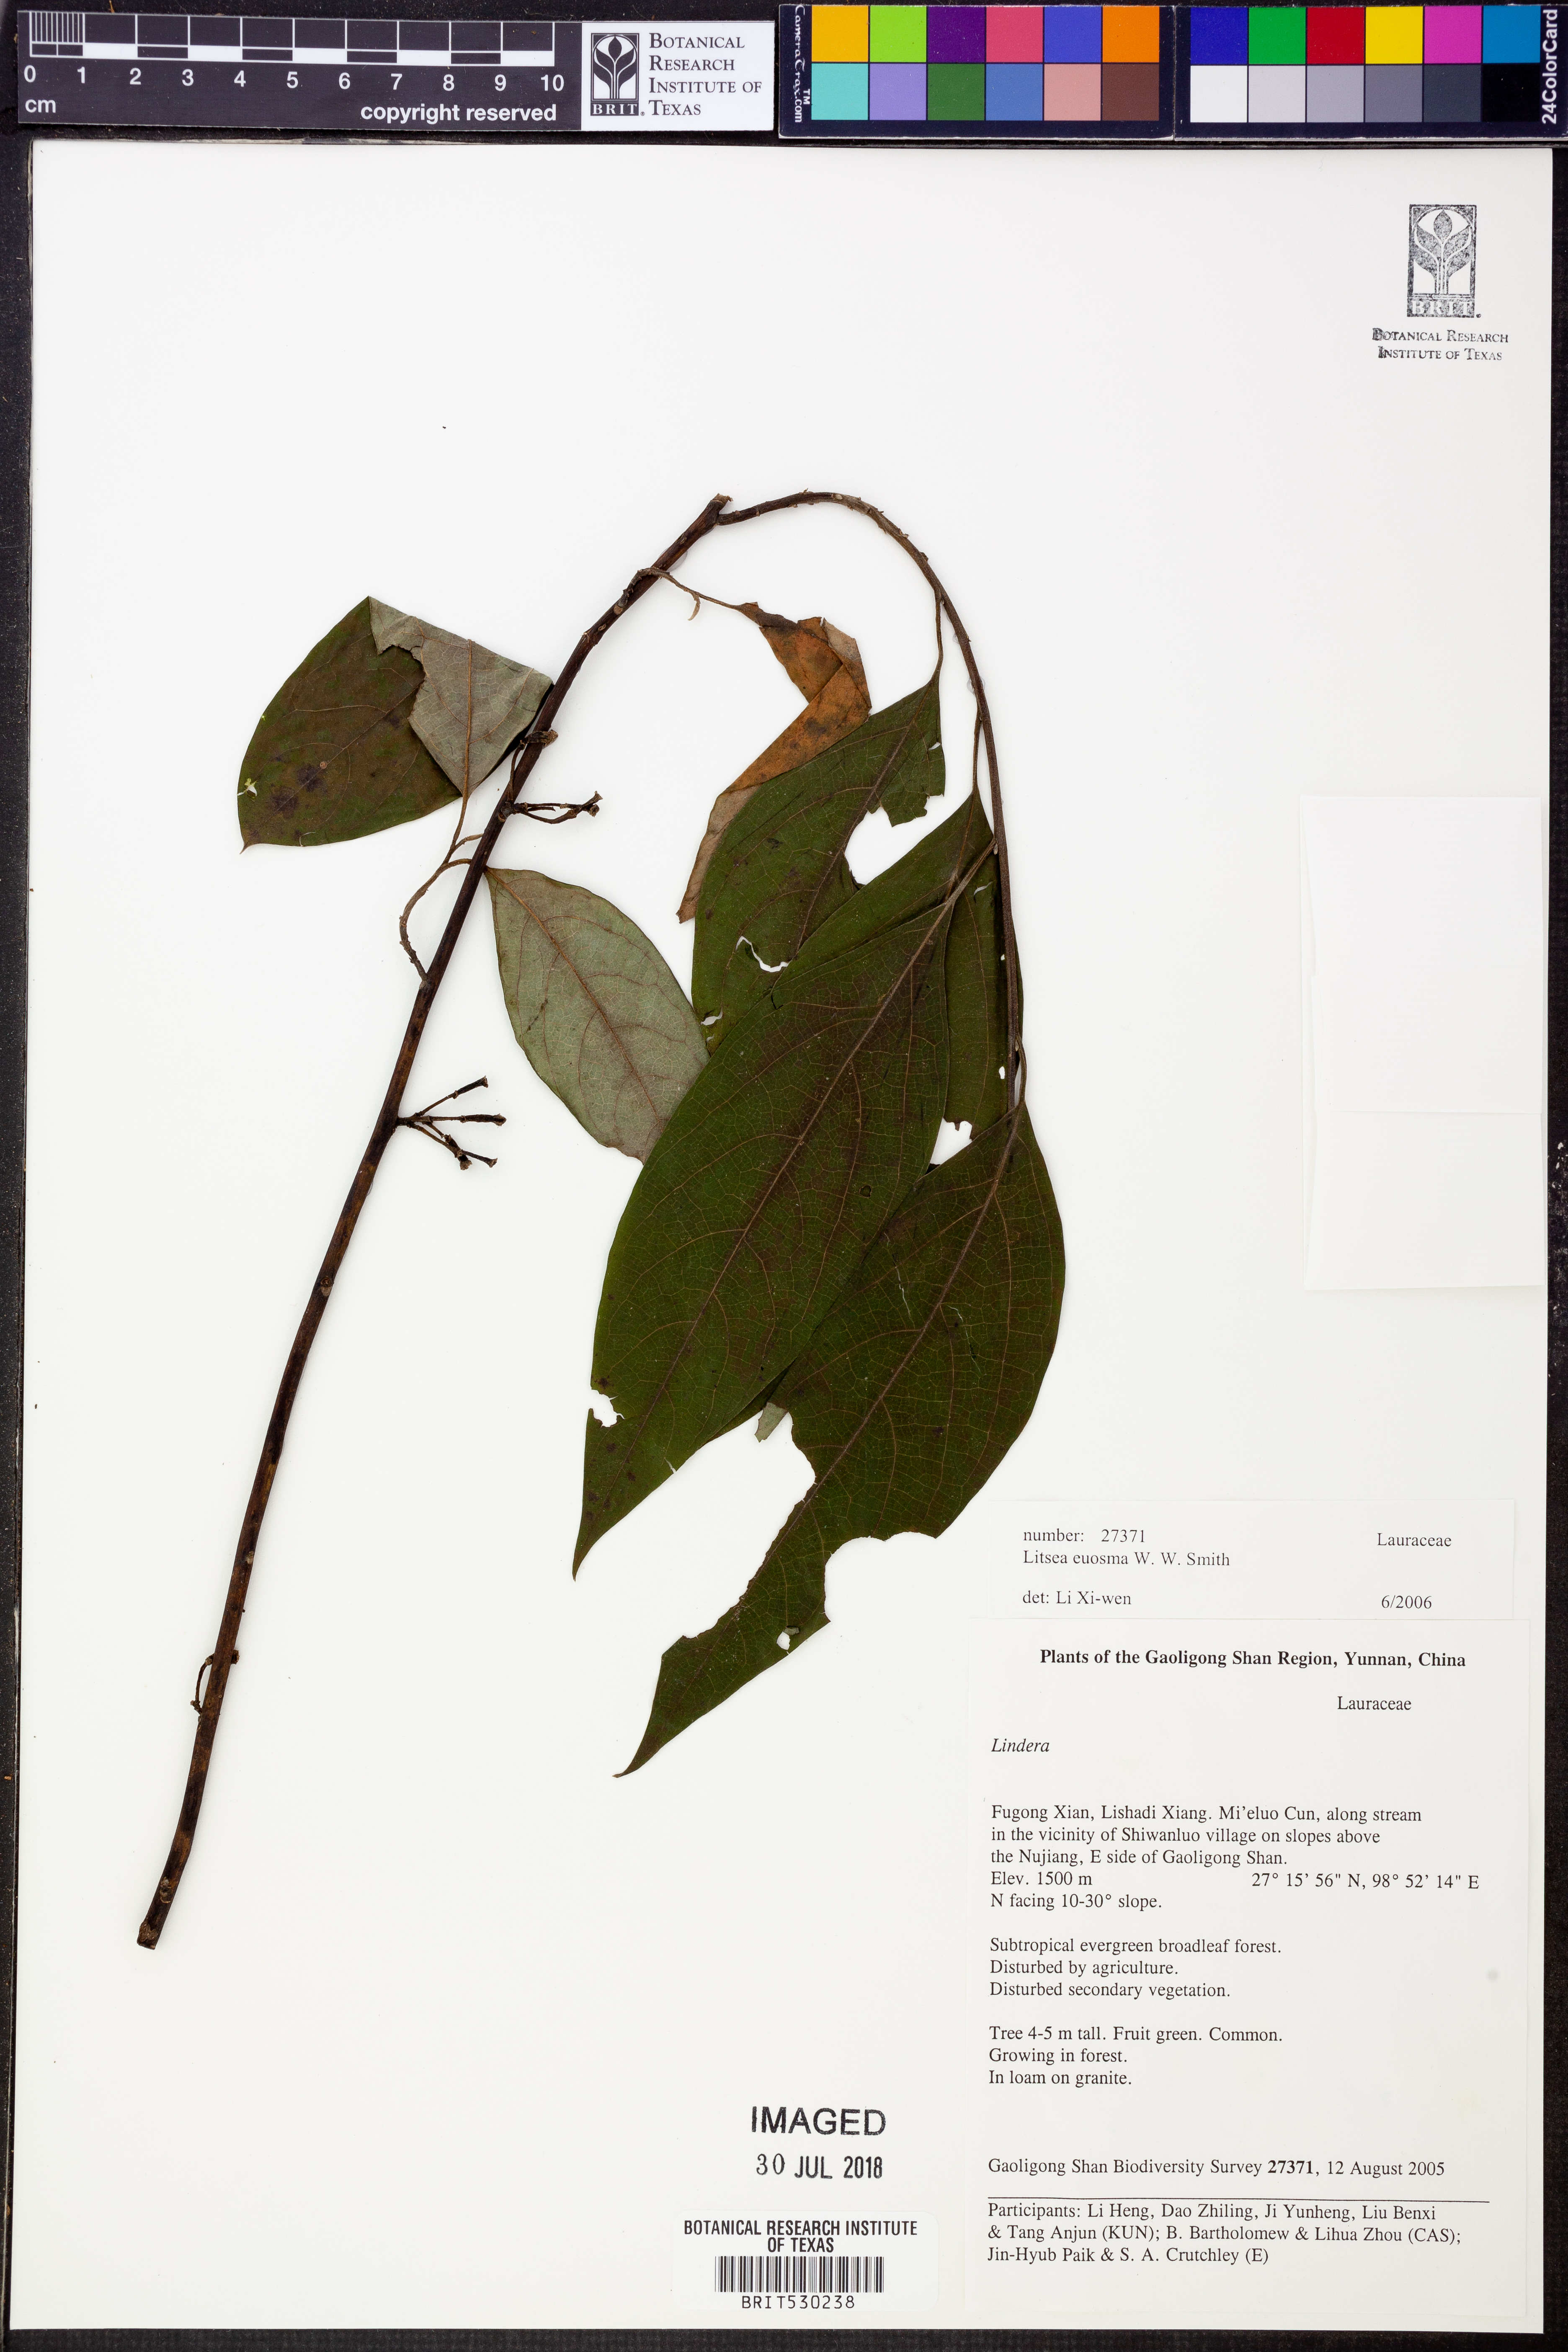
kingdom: Plantae
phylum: Tracheophyta
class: Magnoliopsida
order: Laurales
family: Lauraceae
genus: Litsea
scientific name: Litsea euosma
